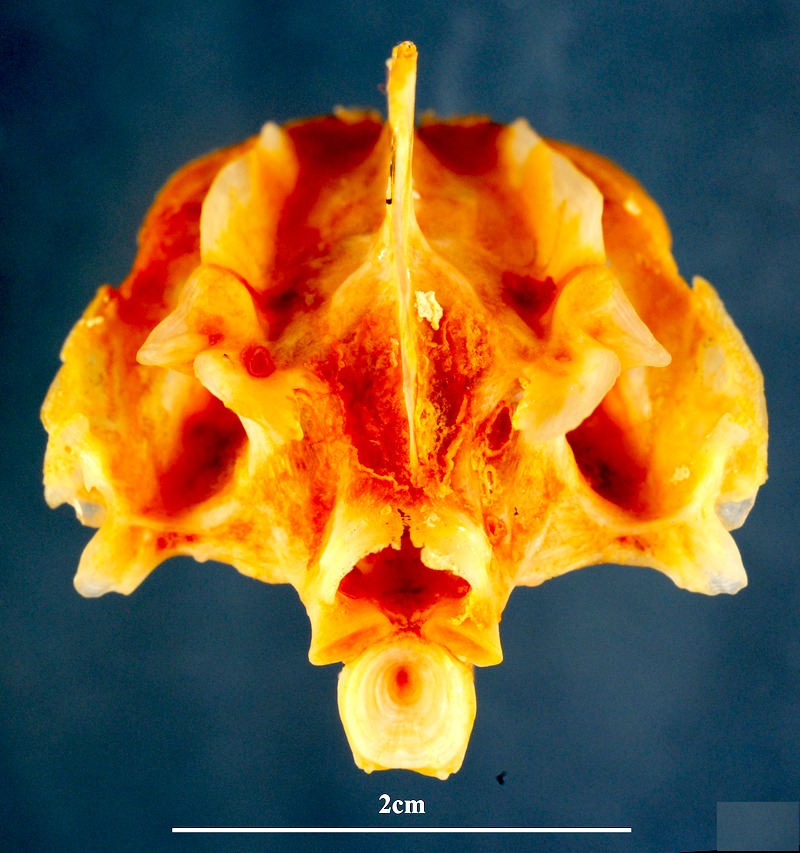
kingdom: Animalia
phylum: Chordata
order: Perciformes
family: Sparidae
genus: Lithognathus
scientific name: Lithognathus mormyrus
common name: Sand steenbras
